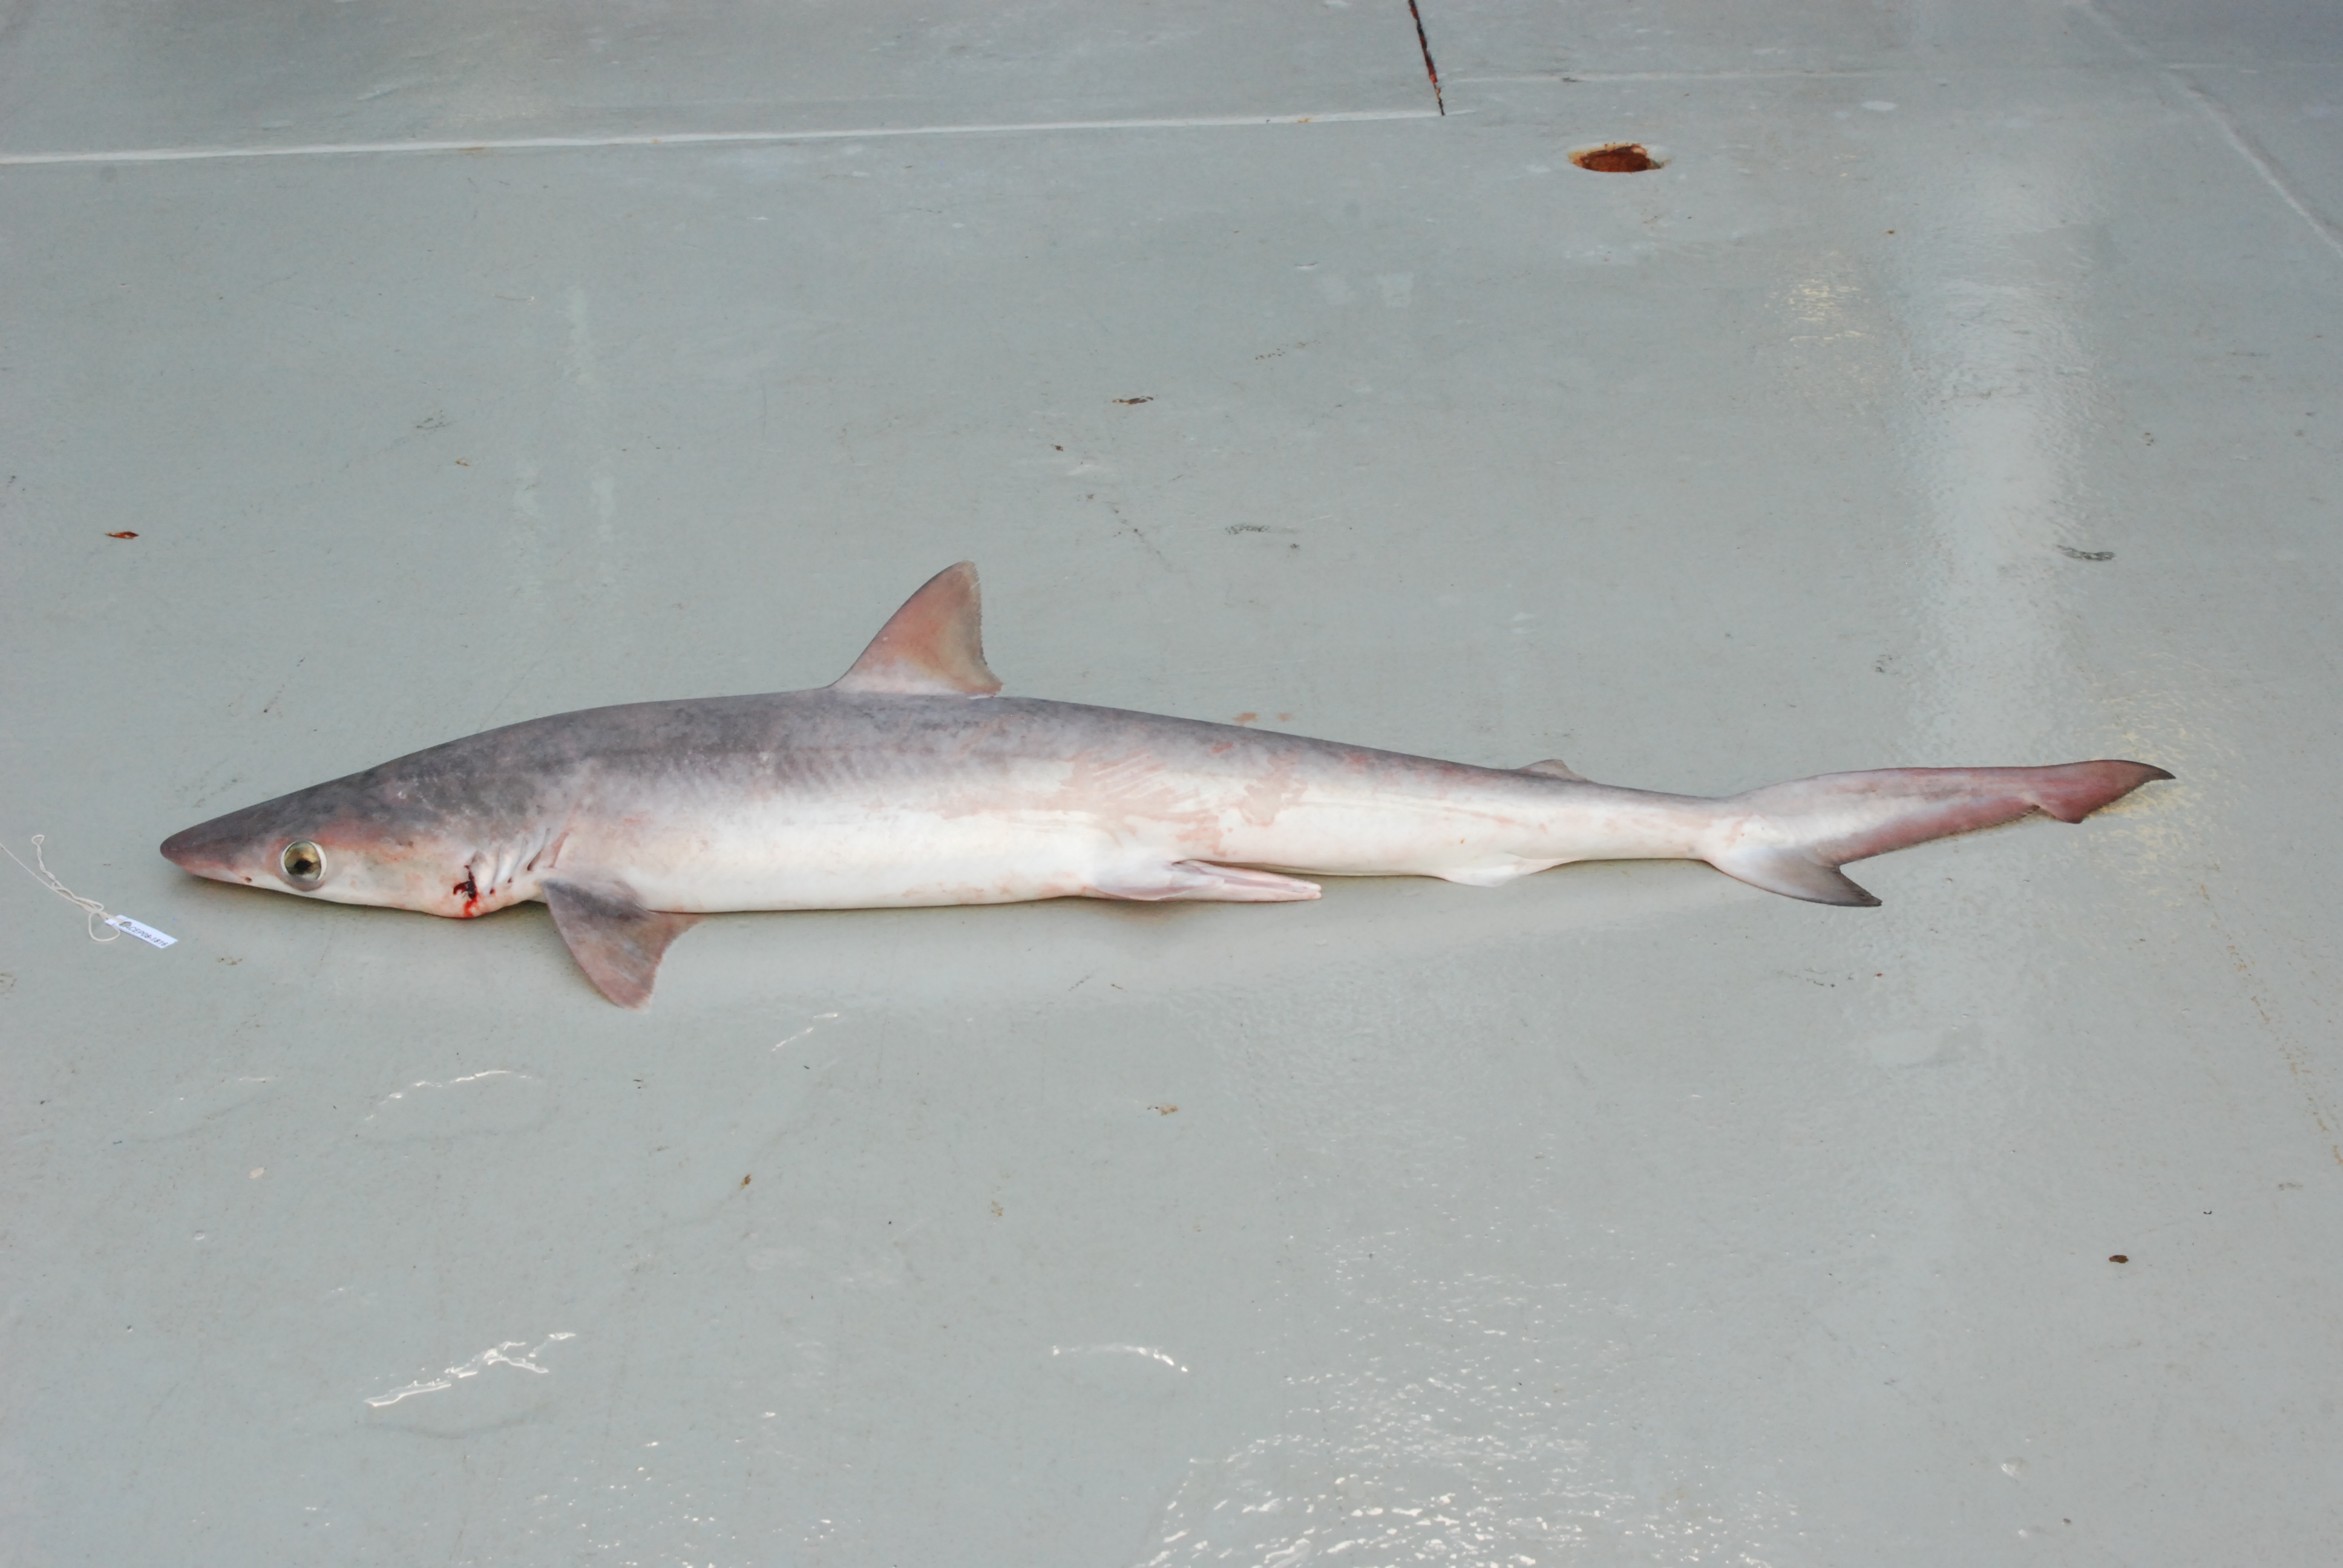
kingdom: Animalia
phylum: Chordata
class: Elasmobranchii
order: Carcharhiniformes
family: Carcharhinidae
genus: Rhizoprionodon
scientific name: Rhizoprionodon acutus
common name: Milk shark
